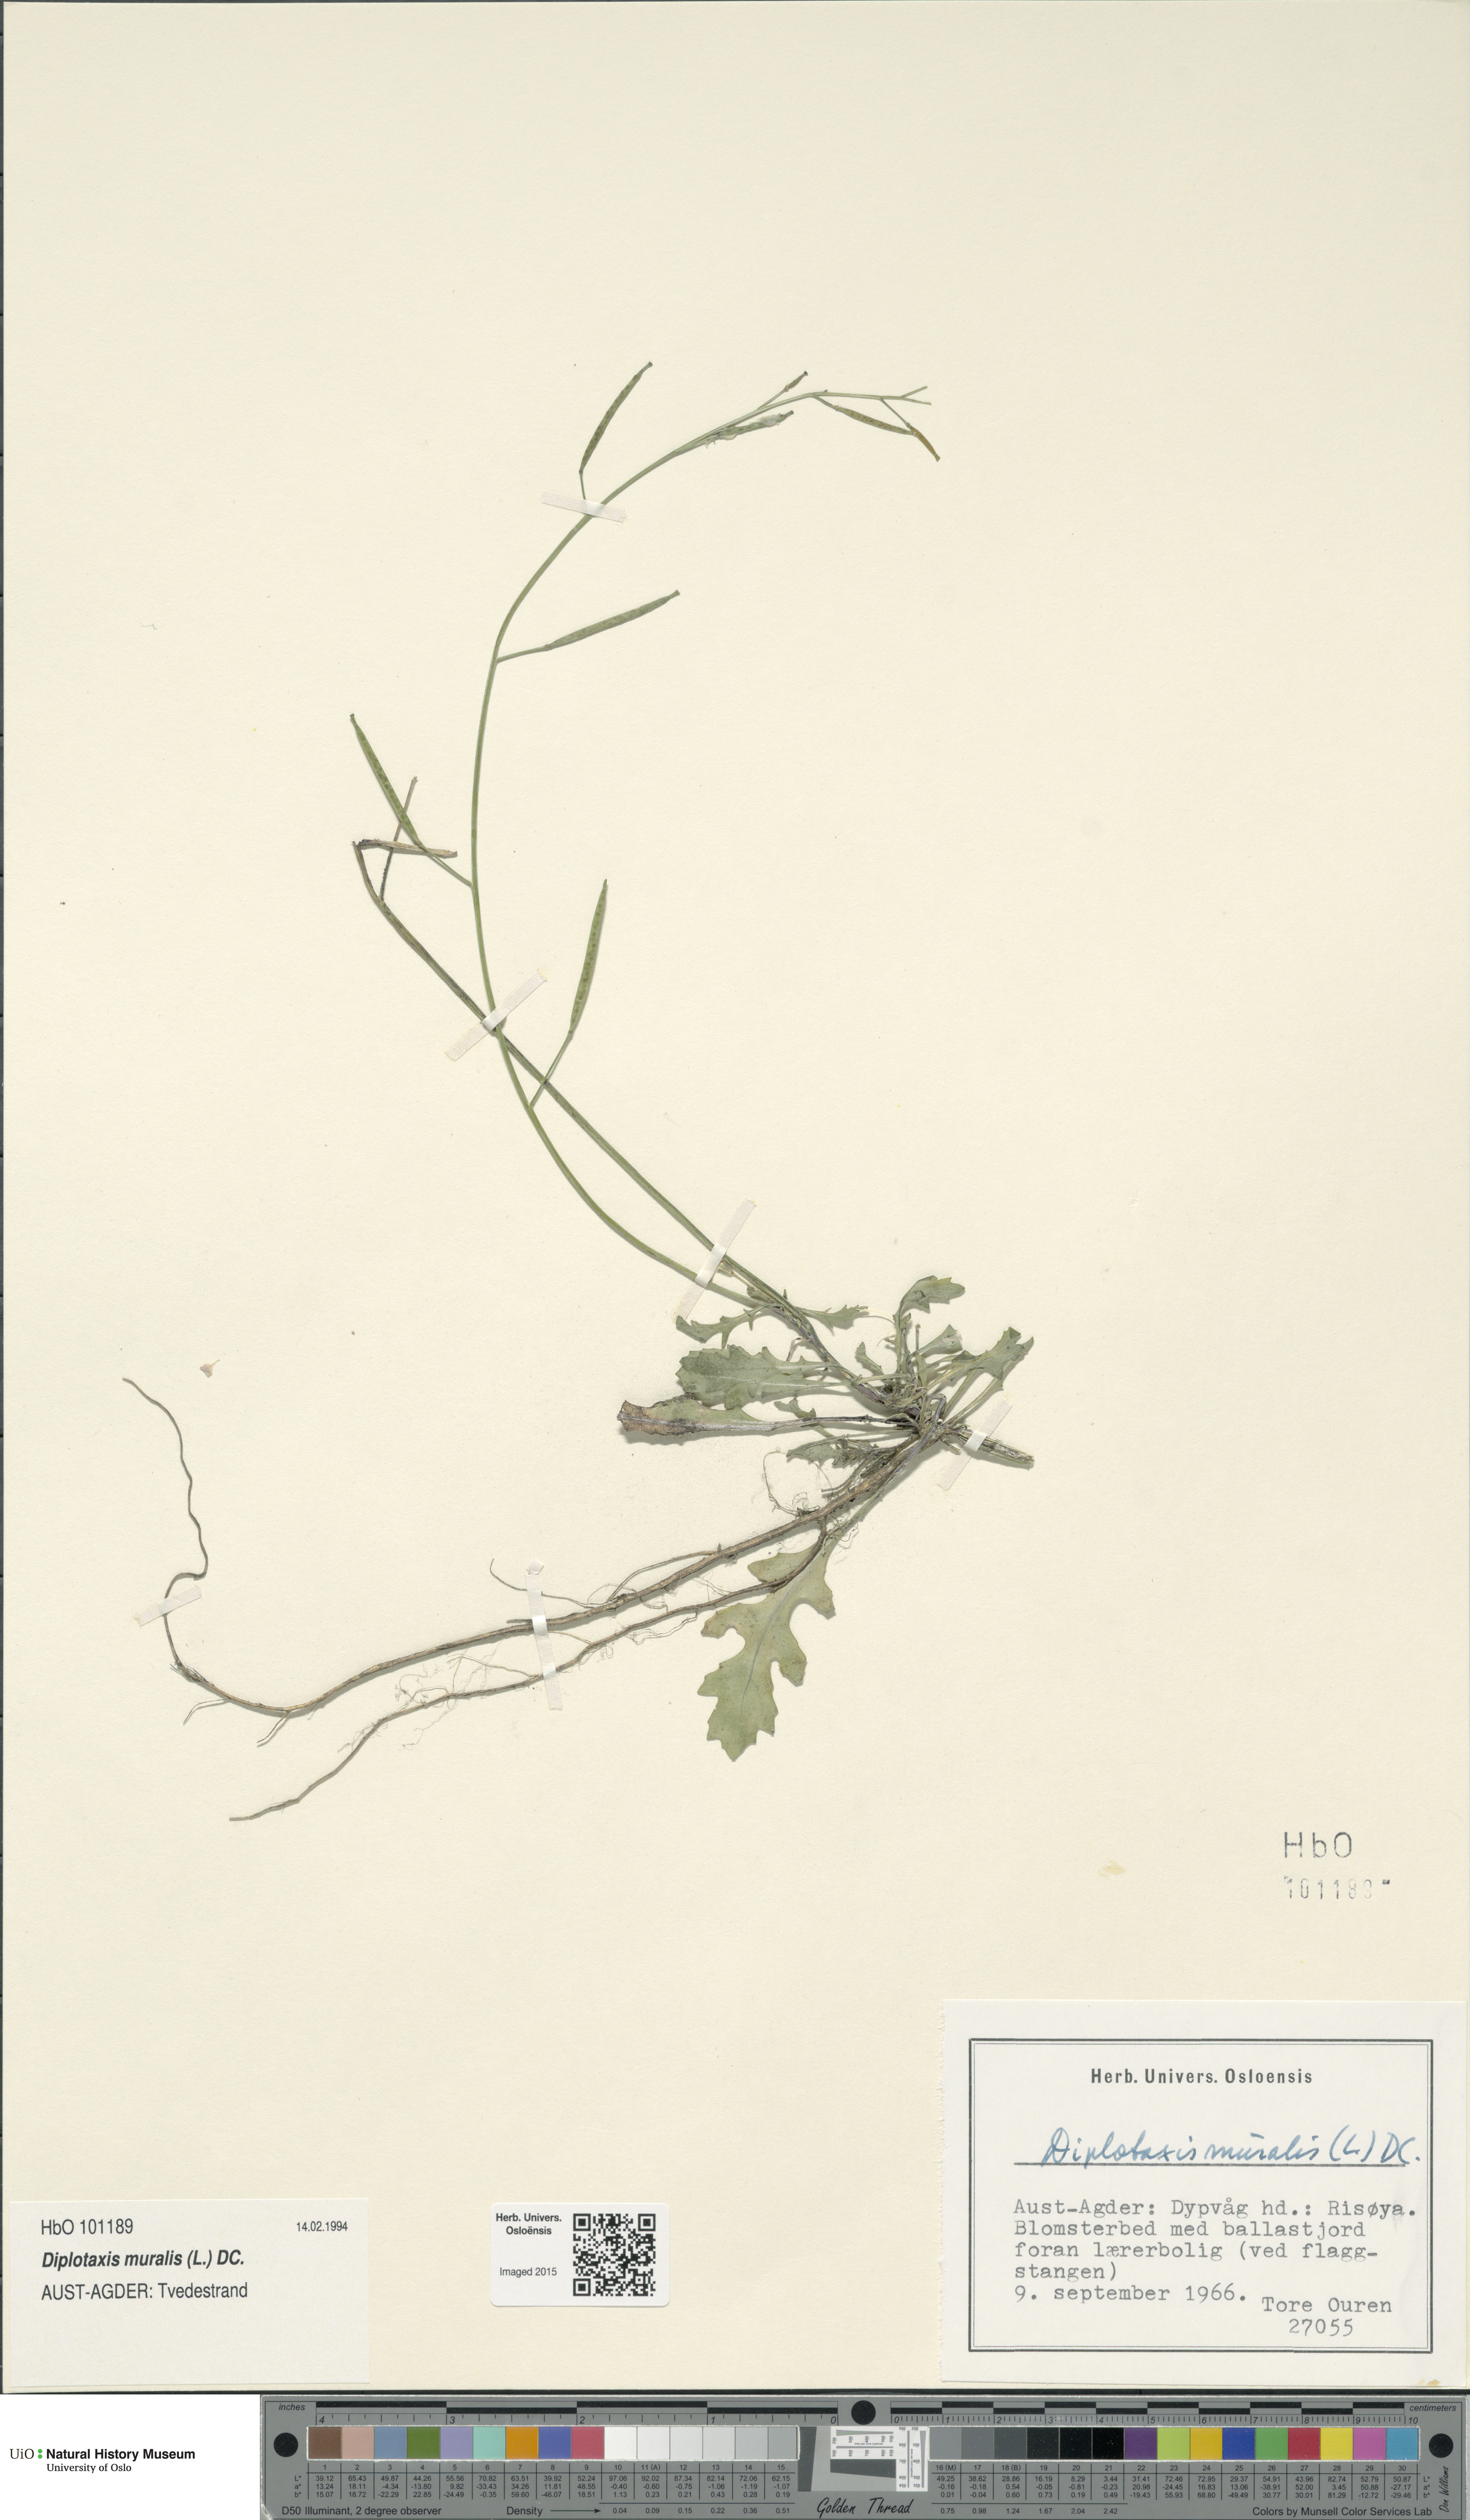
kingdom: Plantae
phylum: Tracheophyta
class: Magnoliopsida
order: Brassicales
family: Brassicaceae
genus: Diplotaxis
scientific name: Diplotaxis muralis
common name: Annual wall-rocket
